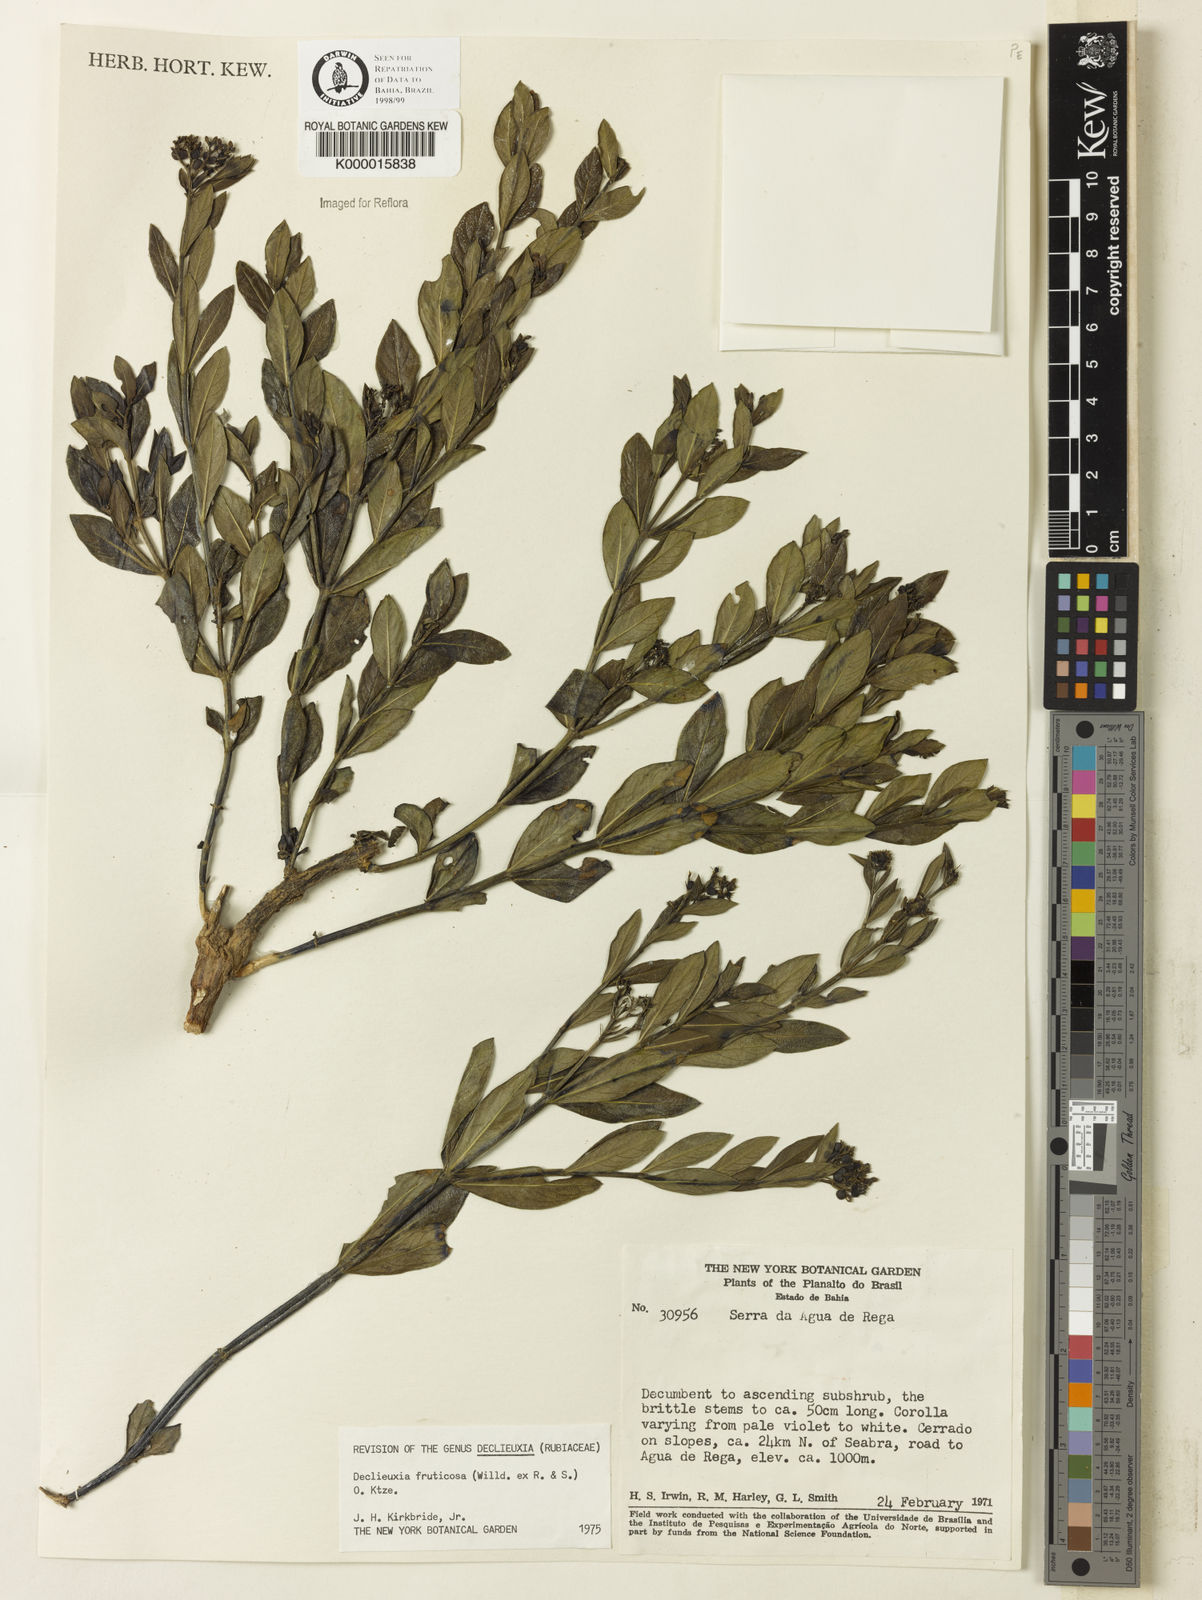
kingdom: Plantae
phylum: Tracheophyta
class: Magnoliopsida
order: Gentianales
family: Rubiaceae
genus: Declieuxia
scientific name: Declieuxia fruticosa
